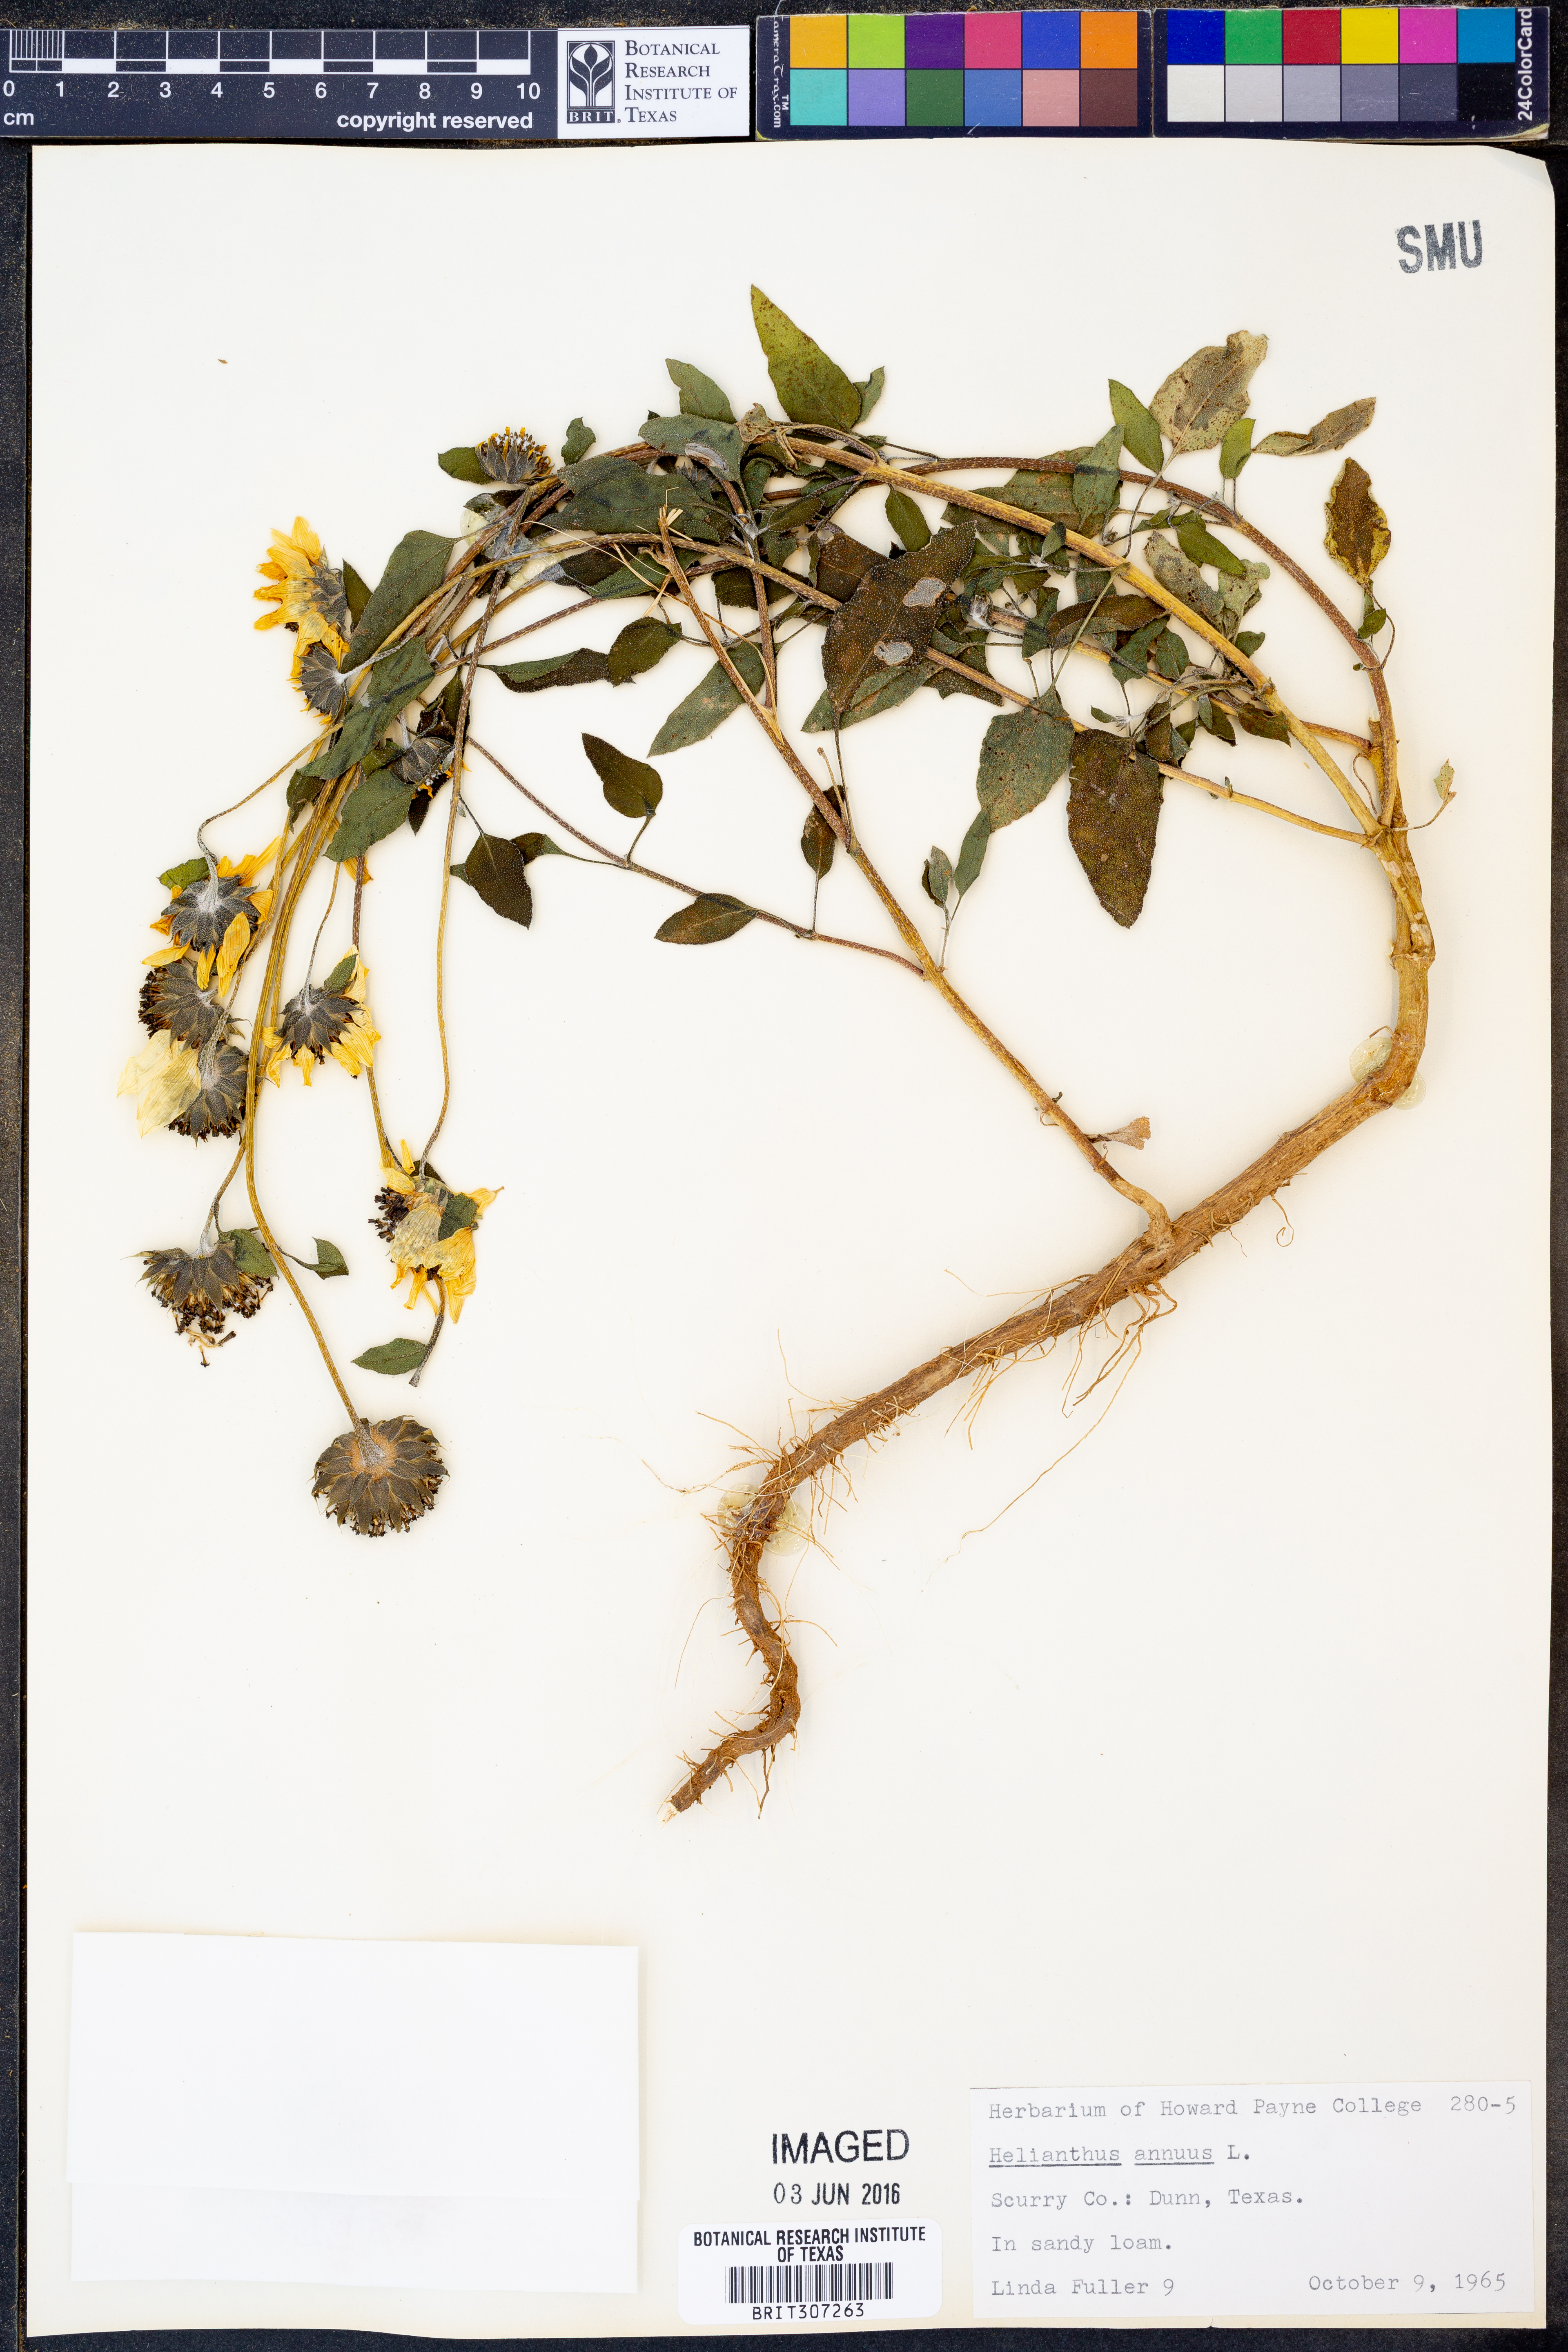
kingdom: Plantae
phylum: Tracheophyta
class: Magnoliopsida
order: Asterales
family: Asteraceae
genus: Helianthus
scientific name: Helianthus annuus
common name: Sunflower
